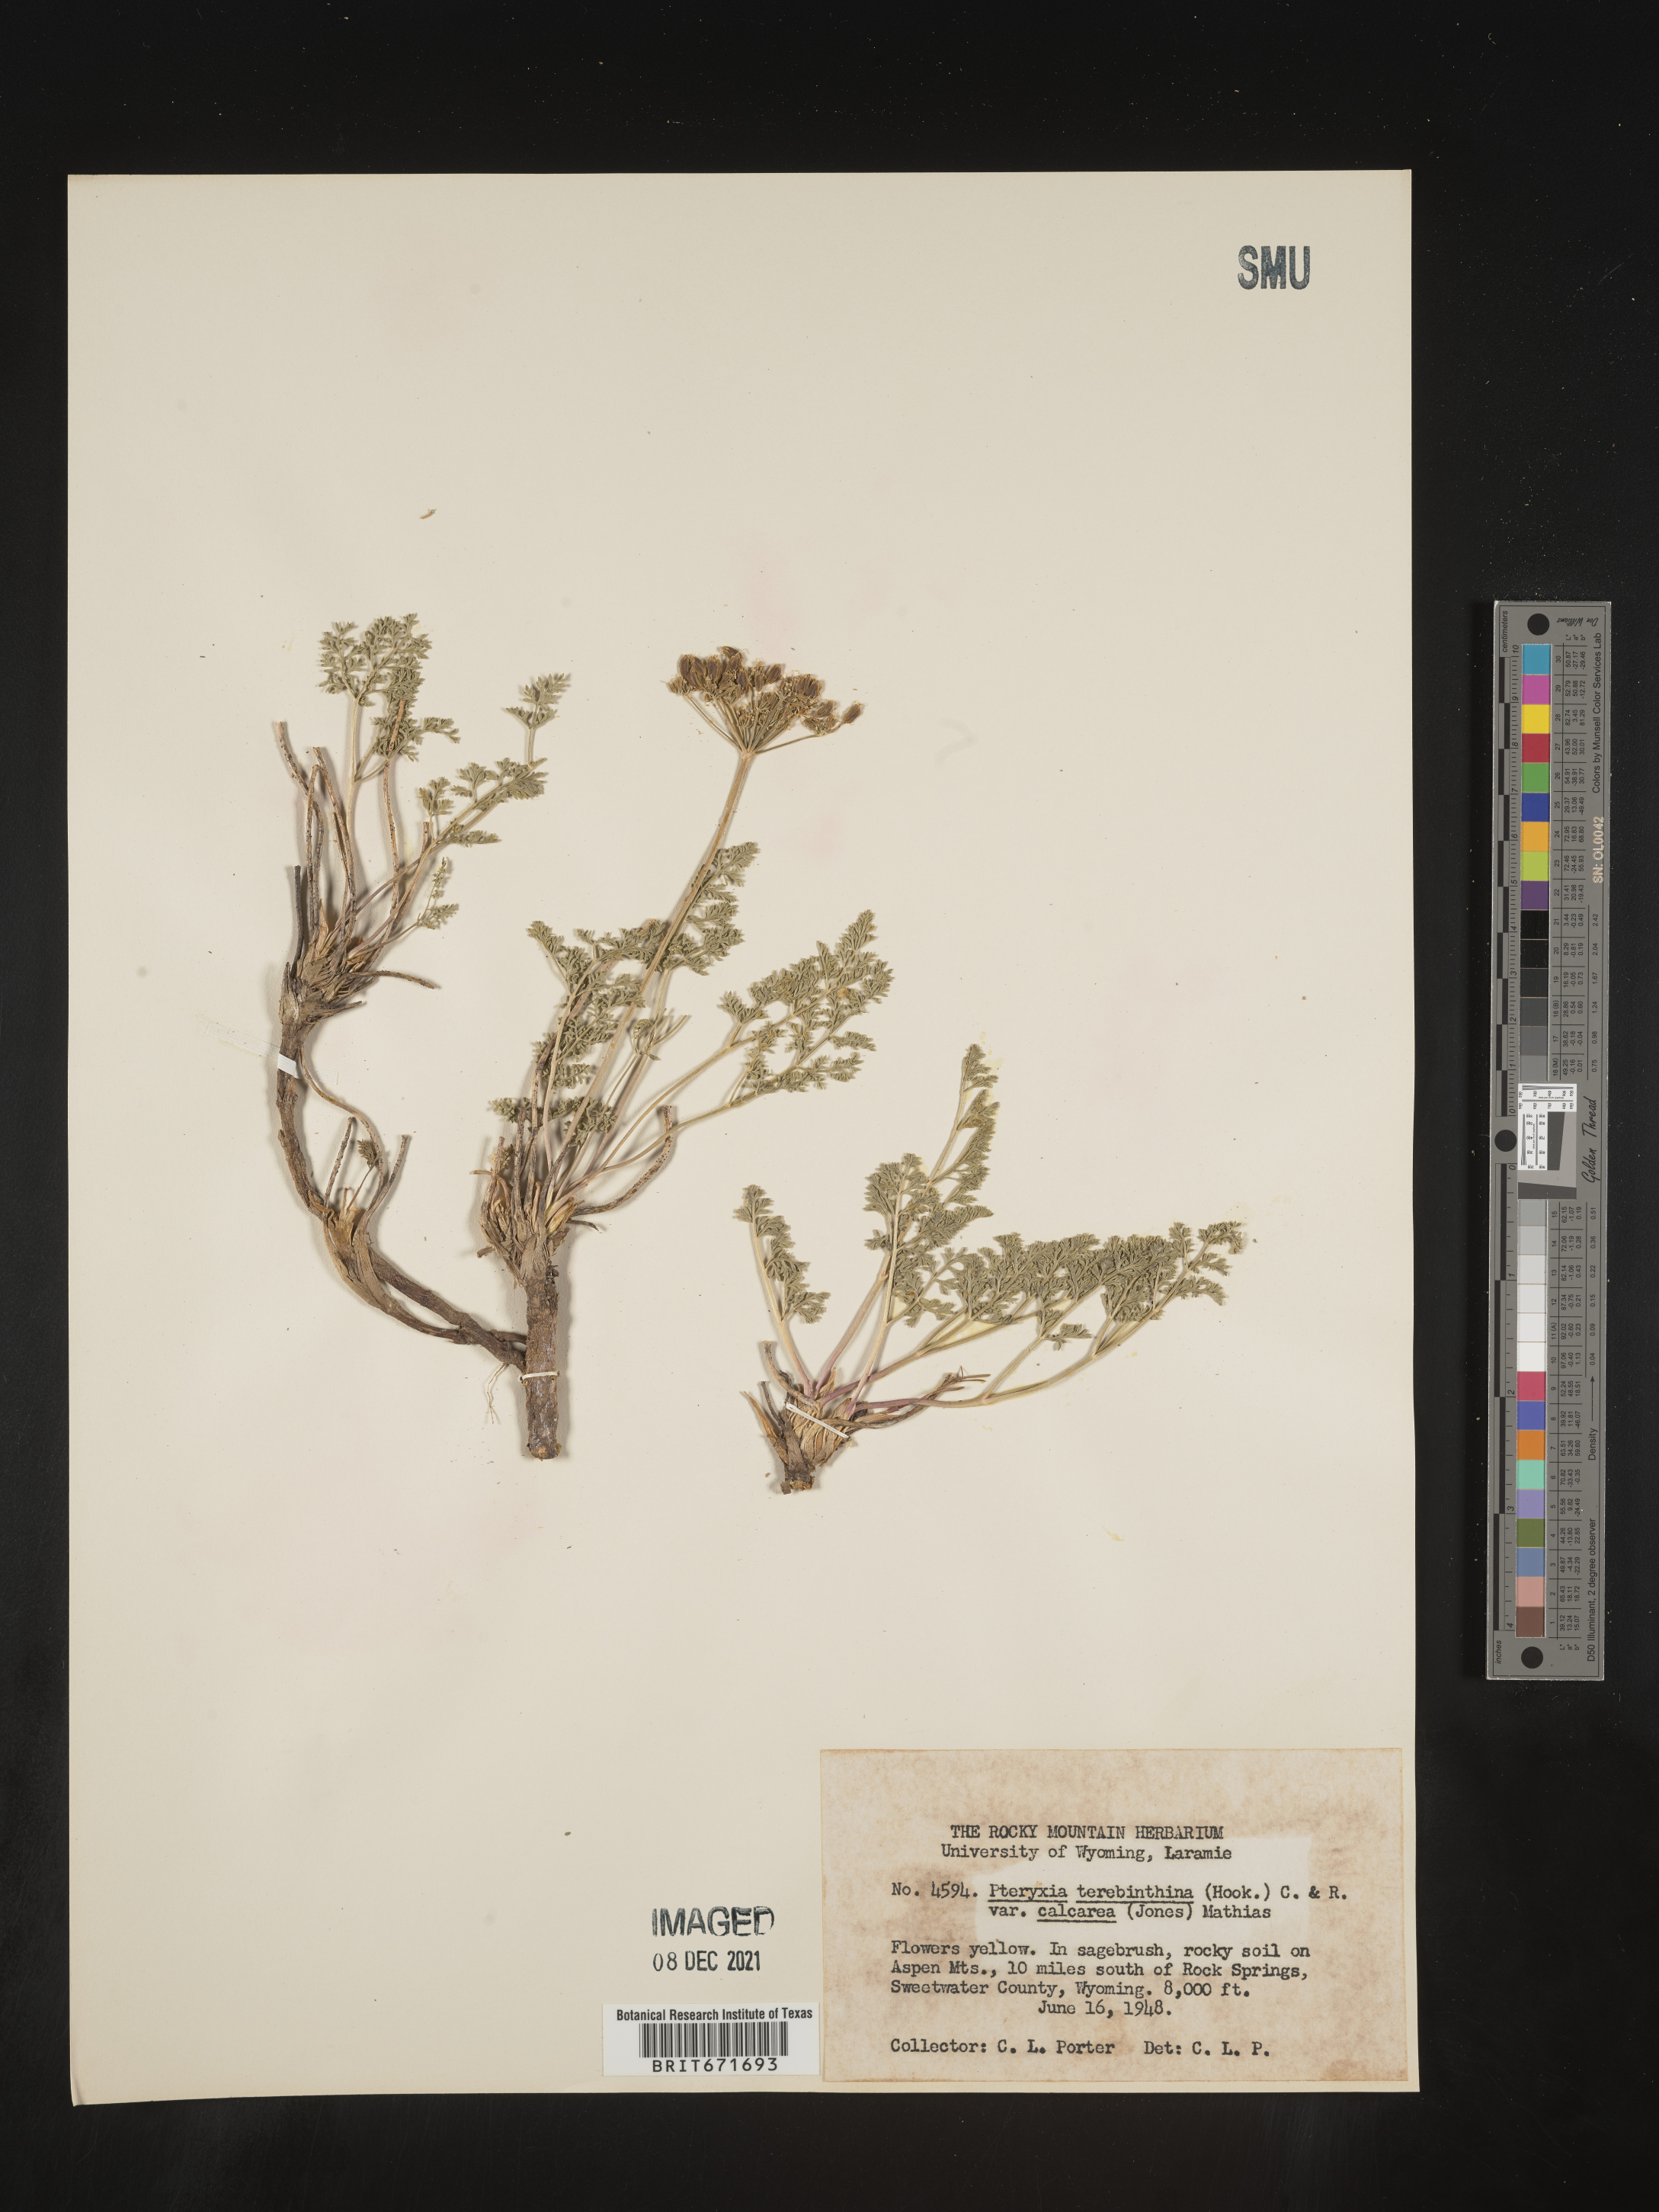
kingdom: Plantae
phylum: Tracheophyta
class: Magnoliopsida
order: Apiales
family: Apiaceae
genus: Pteryxia
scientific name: Pteryxia terebinthina
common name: Turpentine wavewing
